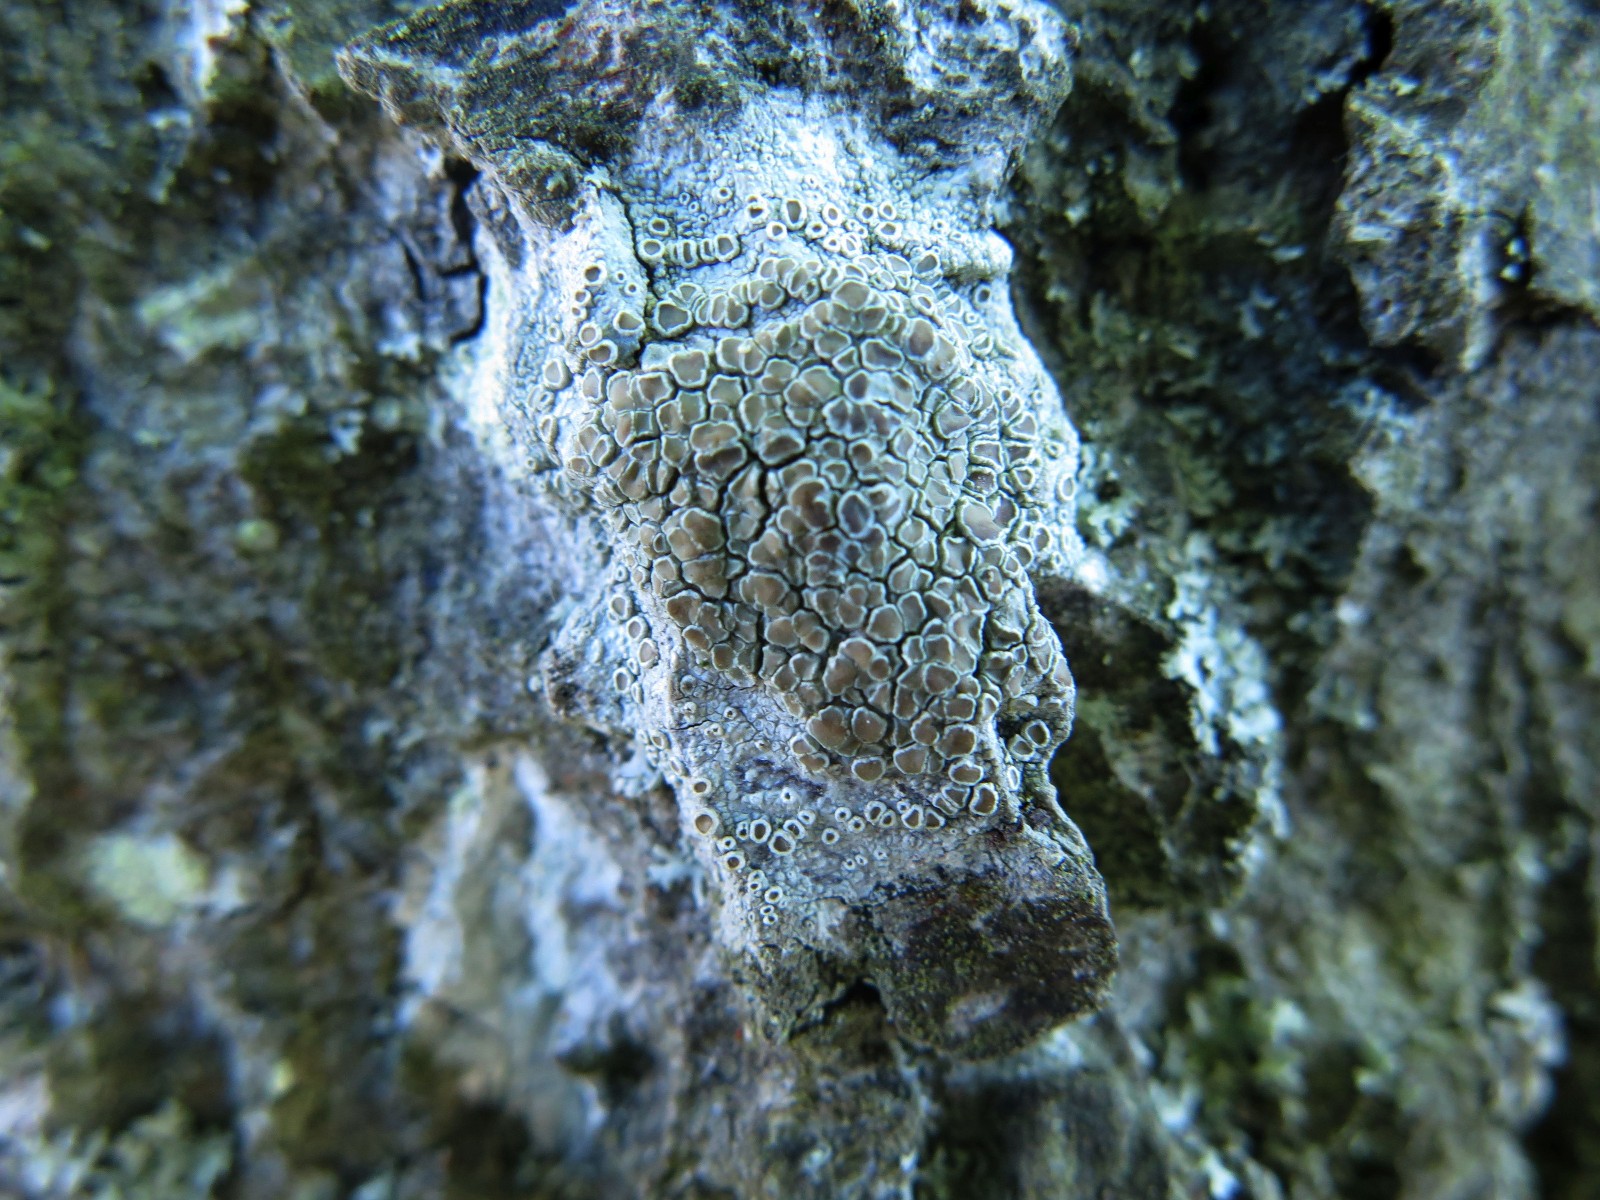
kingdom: Fungi
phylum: Ascomycota
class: Lecanoromycetes
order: Lecanorales
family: Lecanoraceae
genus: Lecanora
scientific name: Lecanora chlarotera
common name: brun kantskivelav
